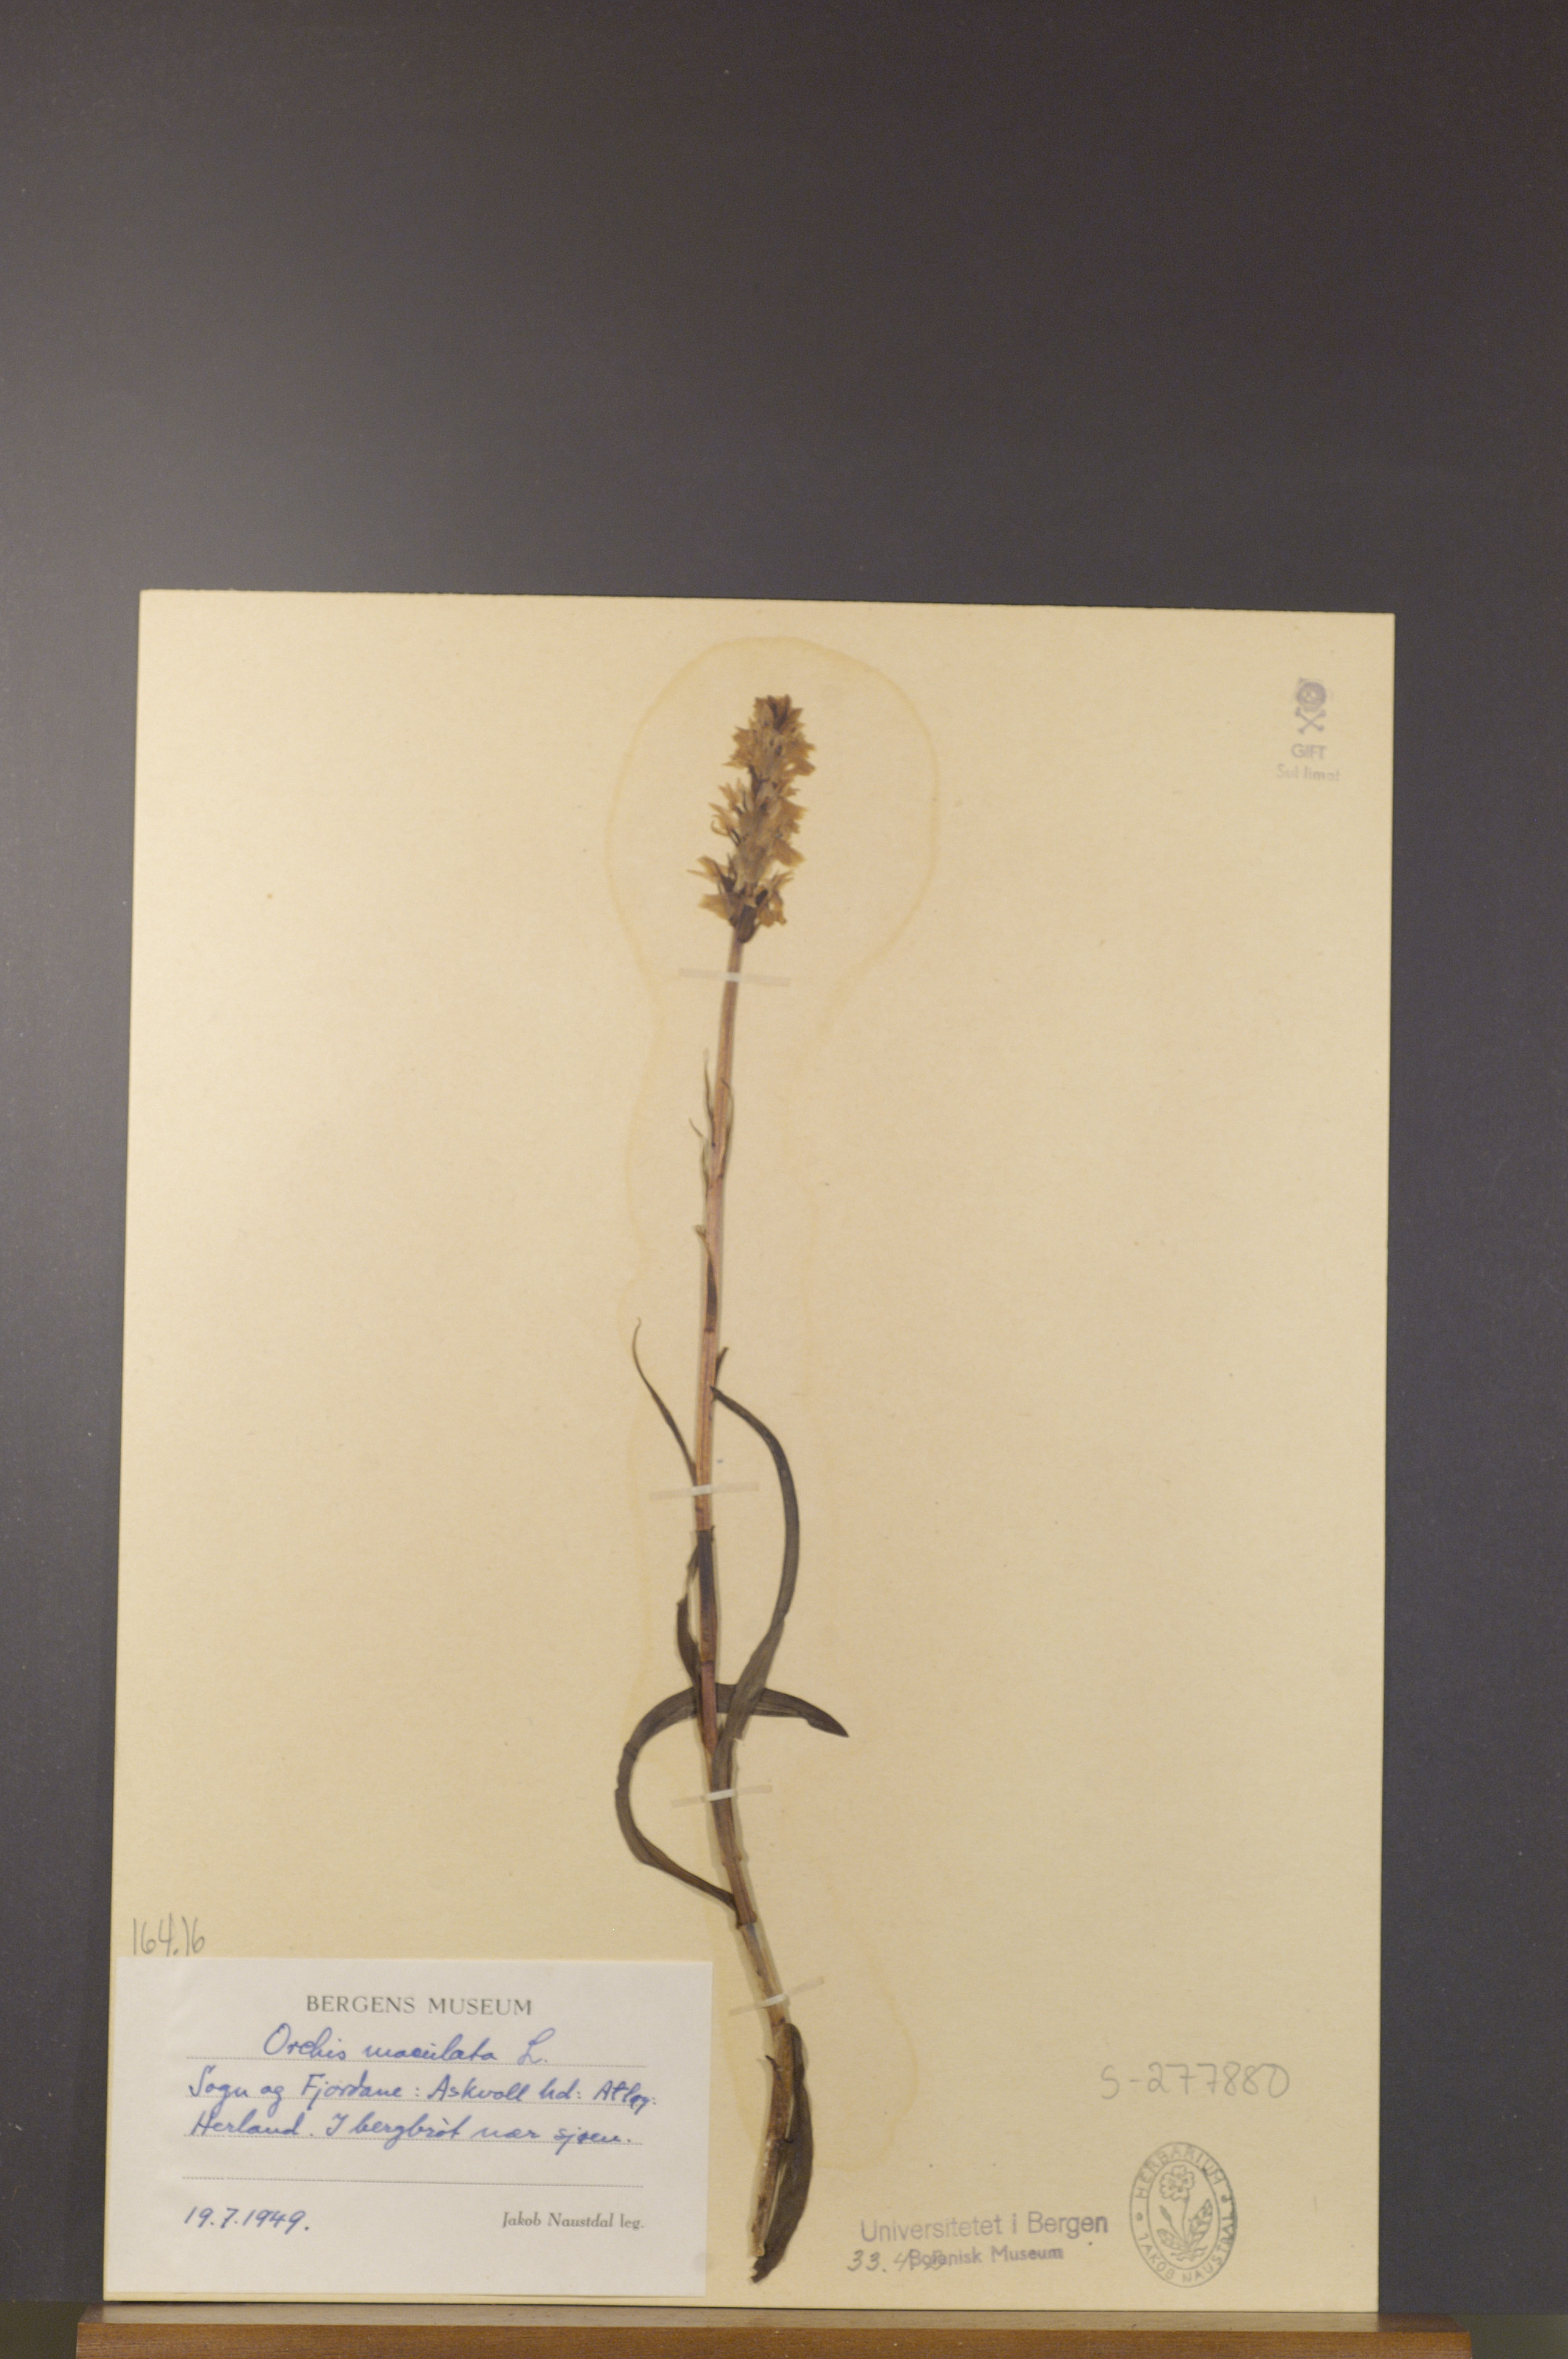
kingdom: Plantae
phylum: Tracheophyta
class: Liliopsida
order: Asparagales
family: Orchidaceae
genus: Dactylorhiza
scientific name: Dactylorhiza maculata
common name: Heath spotted-orchid
